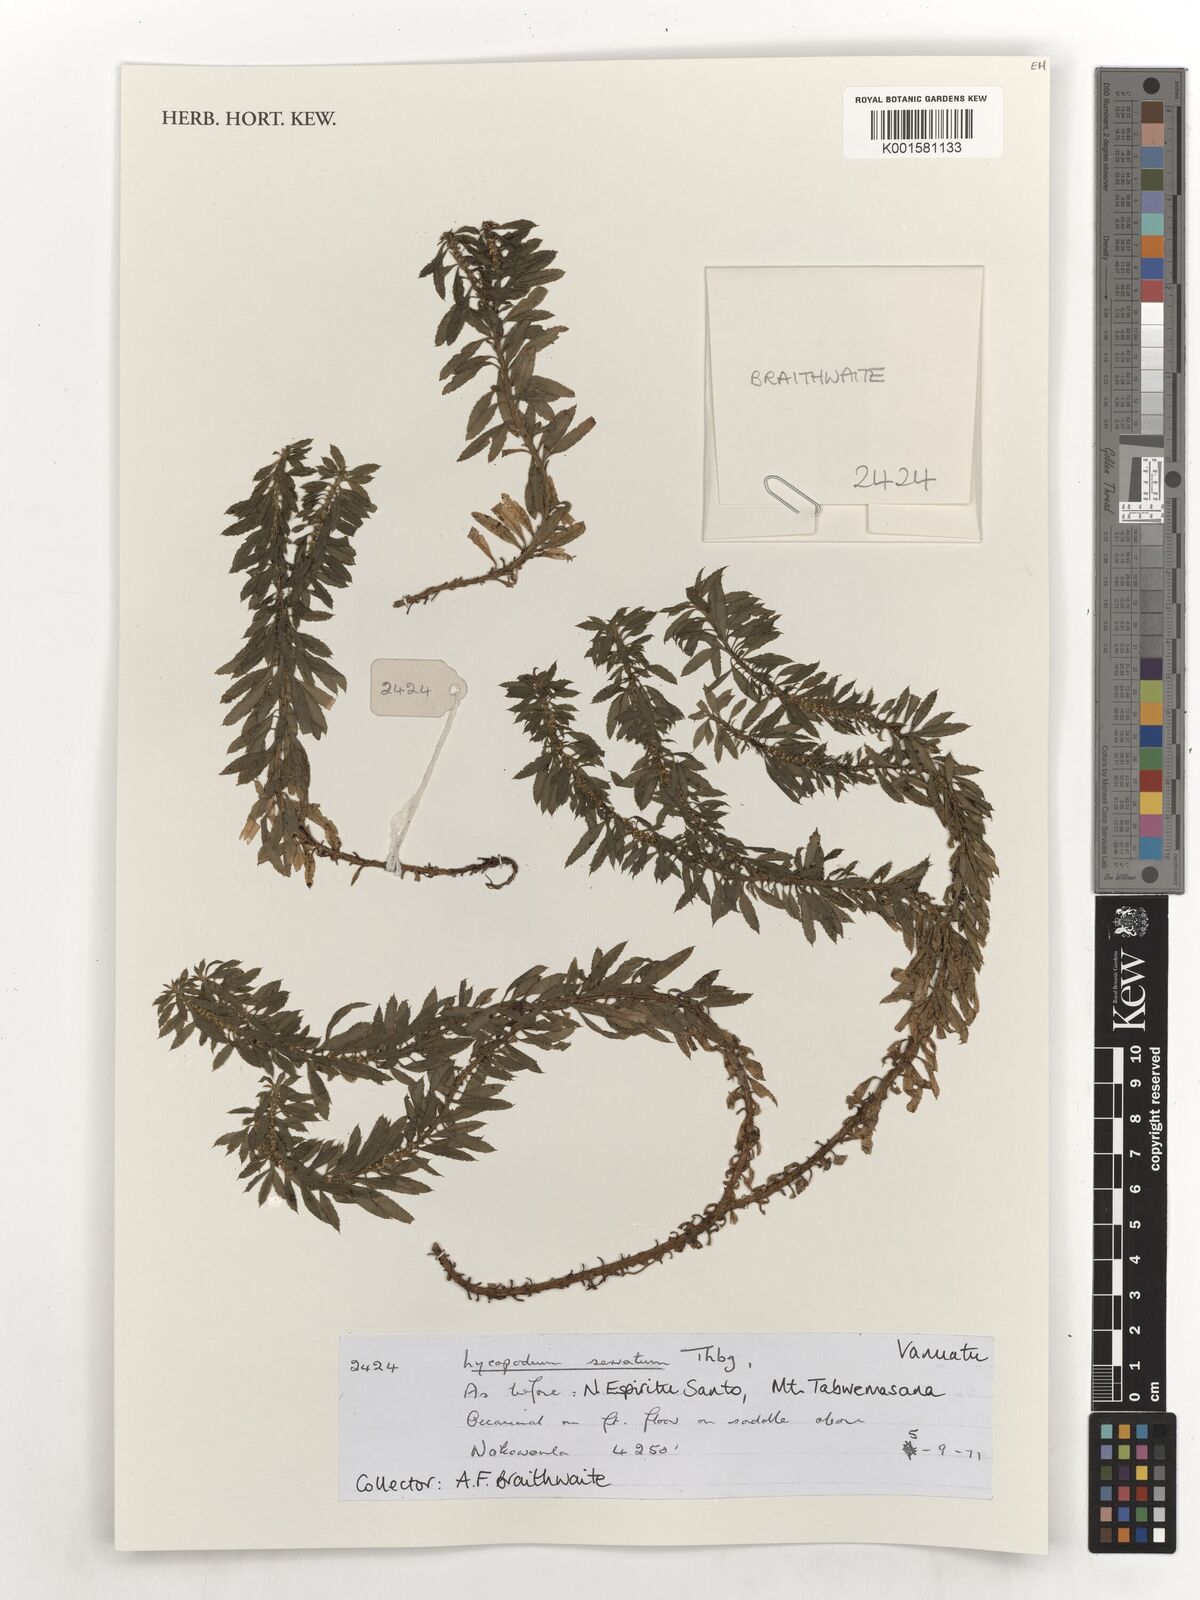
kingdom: Plantae
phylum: Tracheophyta
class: Lycopodiopsida
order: Lycopodiales
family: Lycopodiaceae
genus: Huperzia
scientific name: Huperzia serrata
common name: Toothed club-moss
